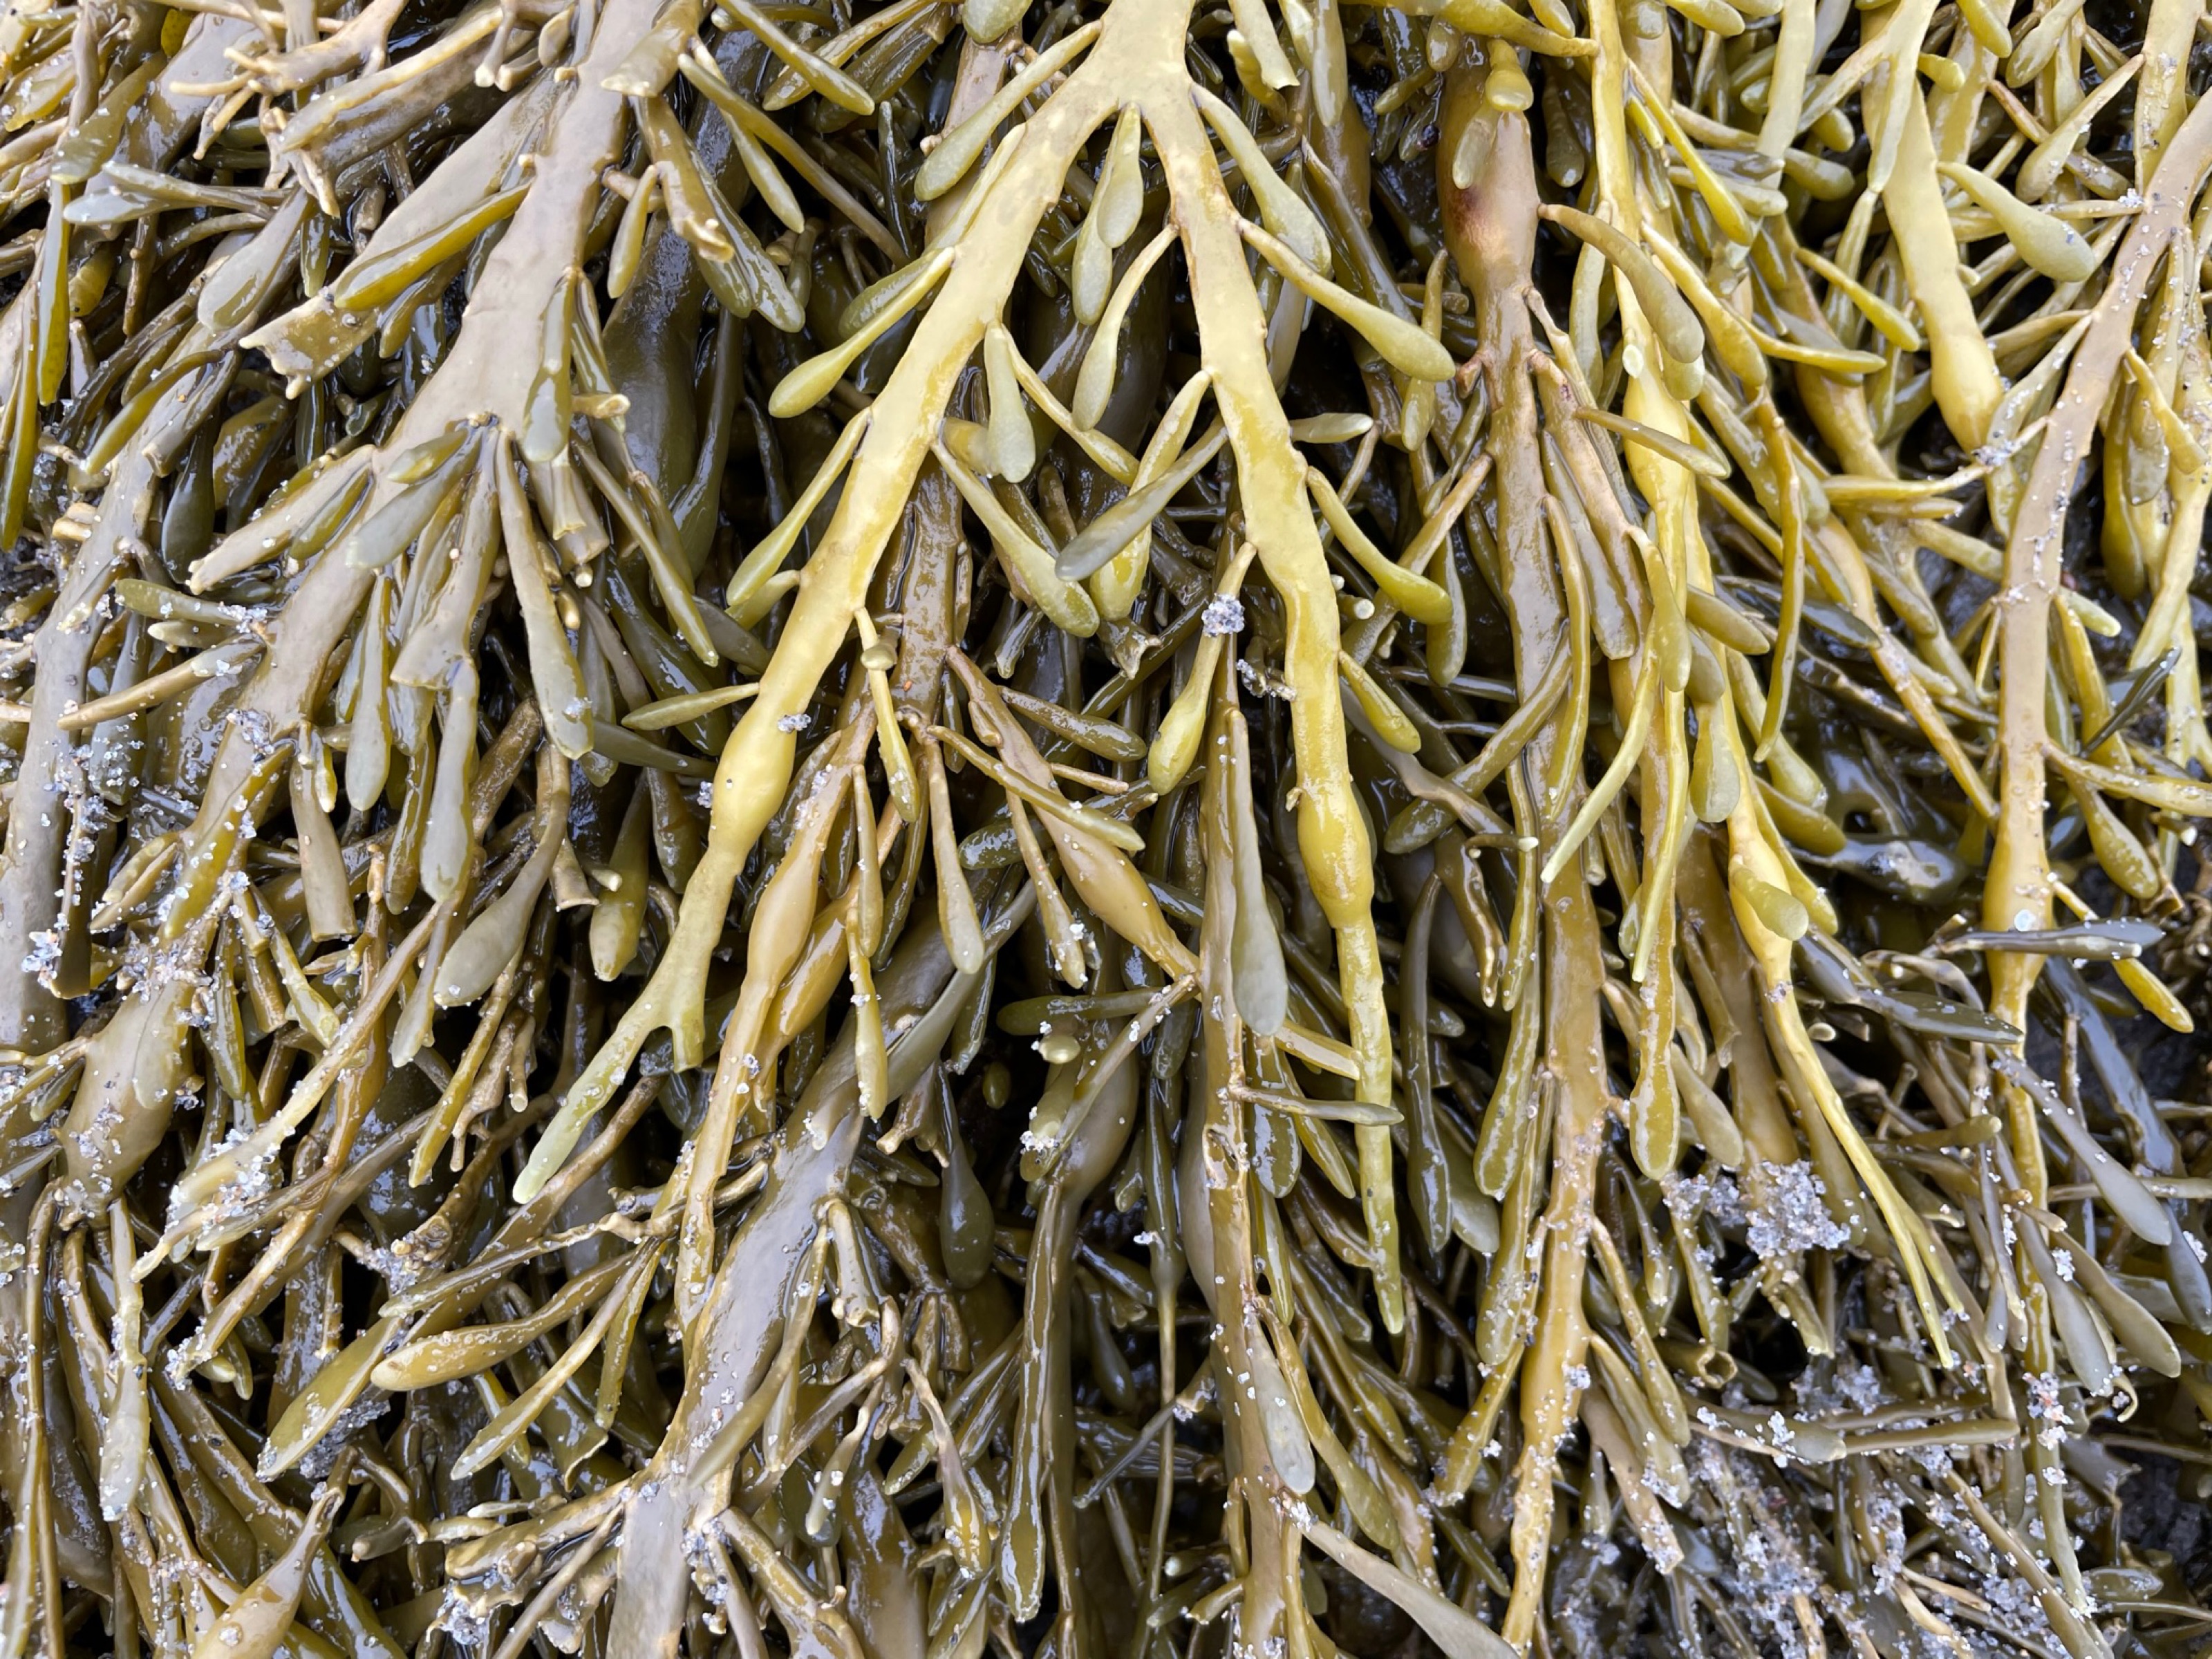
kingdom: Chromista
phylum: Ochrophyta
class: Phaeophyceae
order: Fucales
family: Fucaceae
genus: Ascophyllum
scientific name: Ascophyllum nodosum
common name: Rockweed
